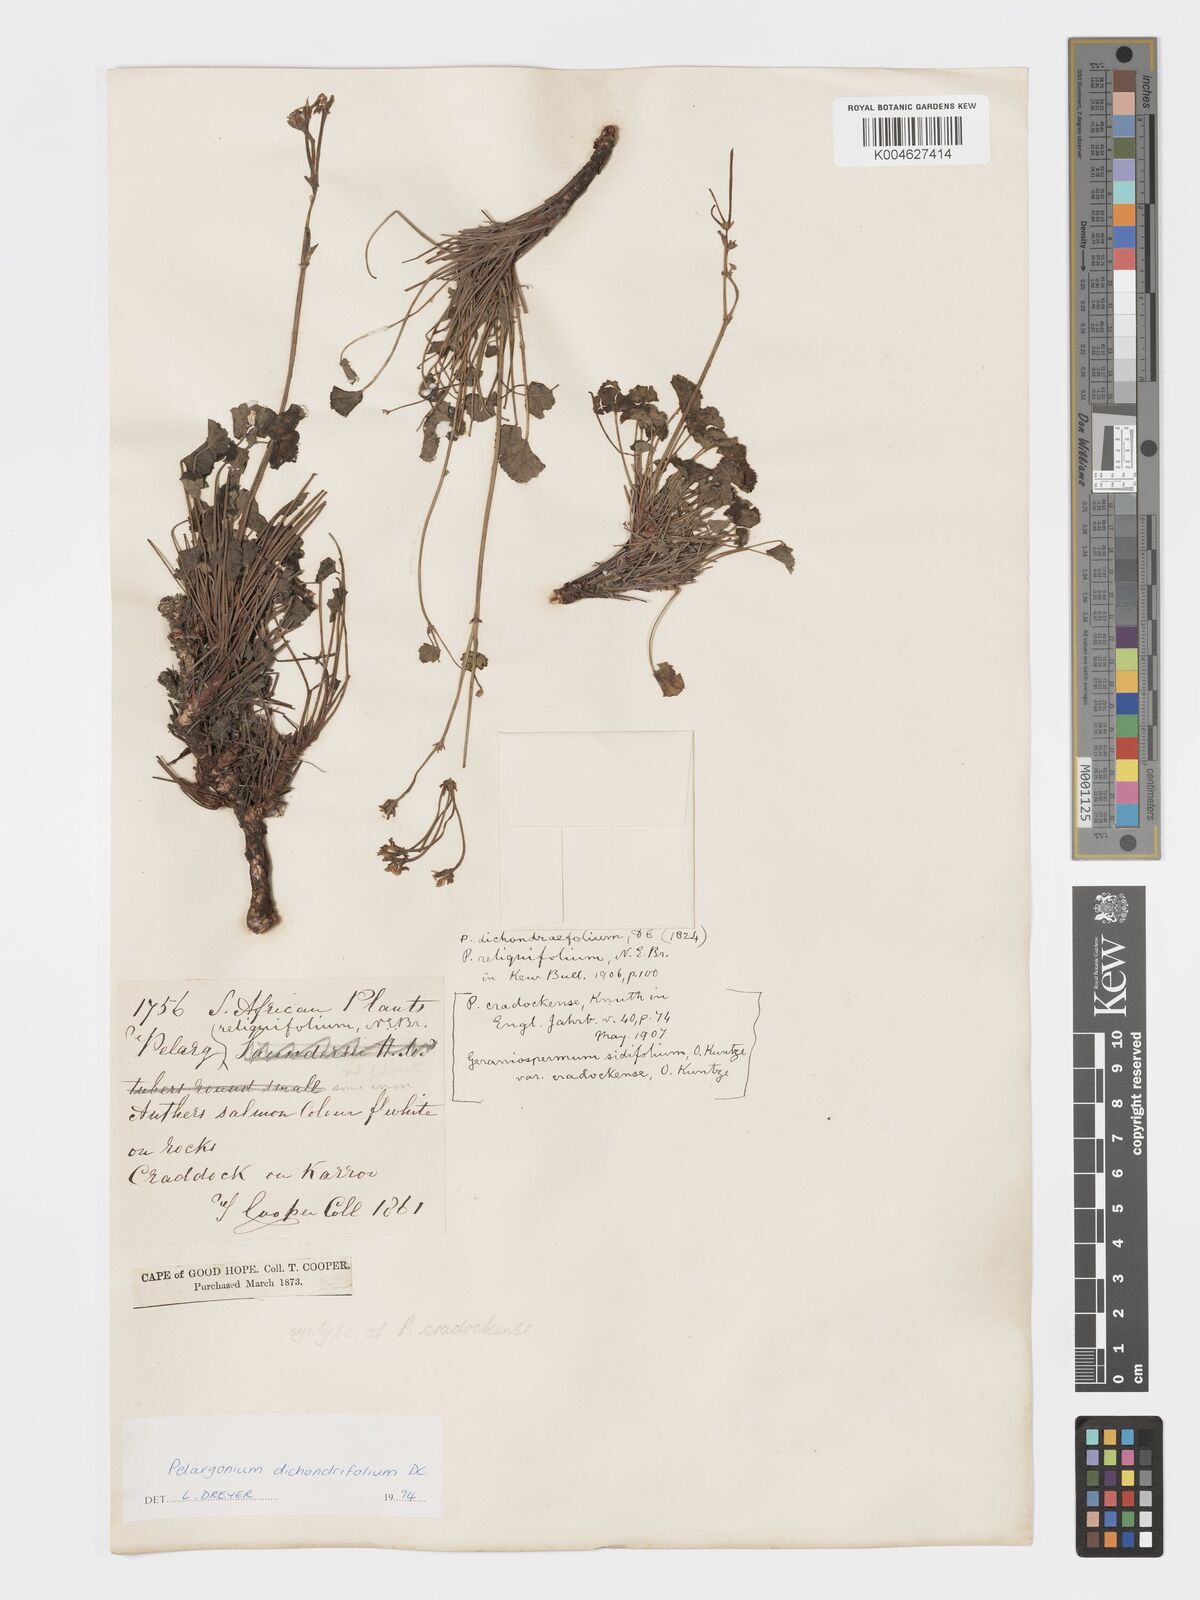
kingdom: Plantae
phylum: Tracheophyta
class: Magnoliopsida
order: Geraniales
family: Geraniaceae
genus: Pelargonium
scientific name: Pelargonium dichondrifolium
